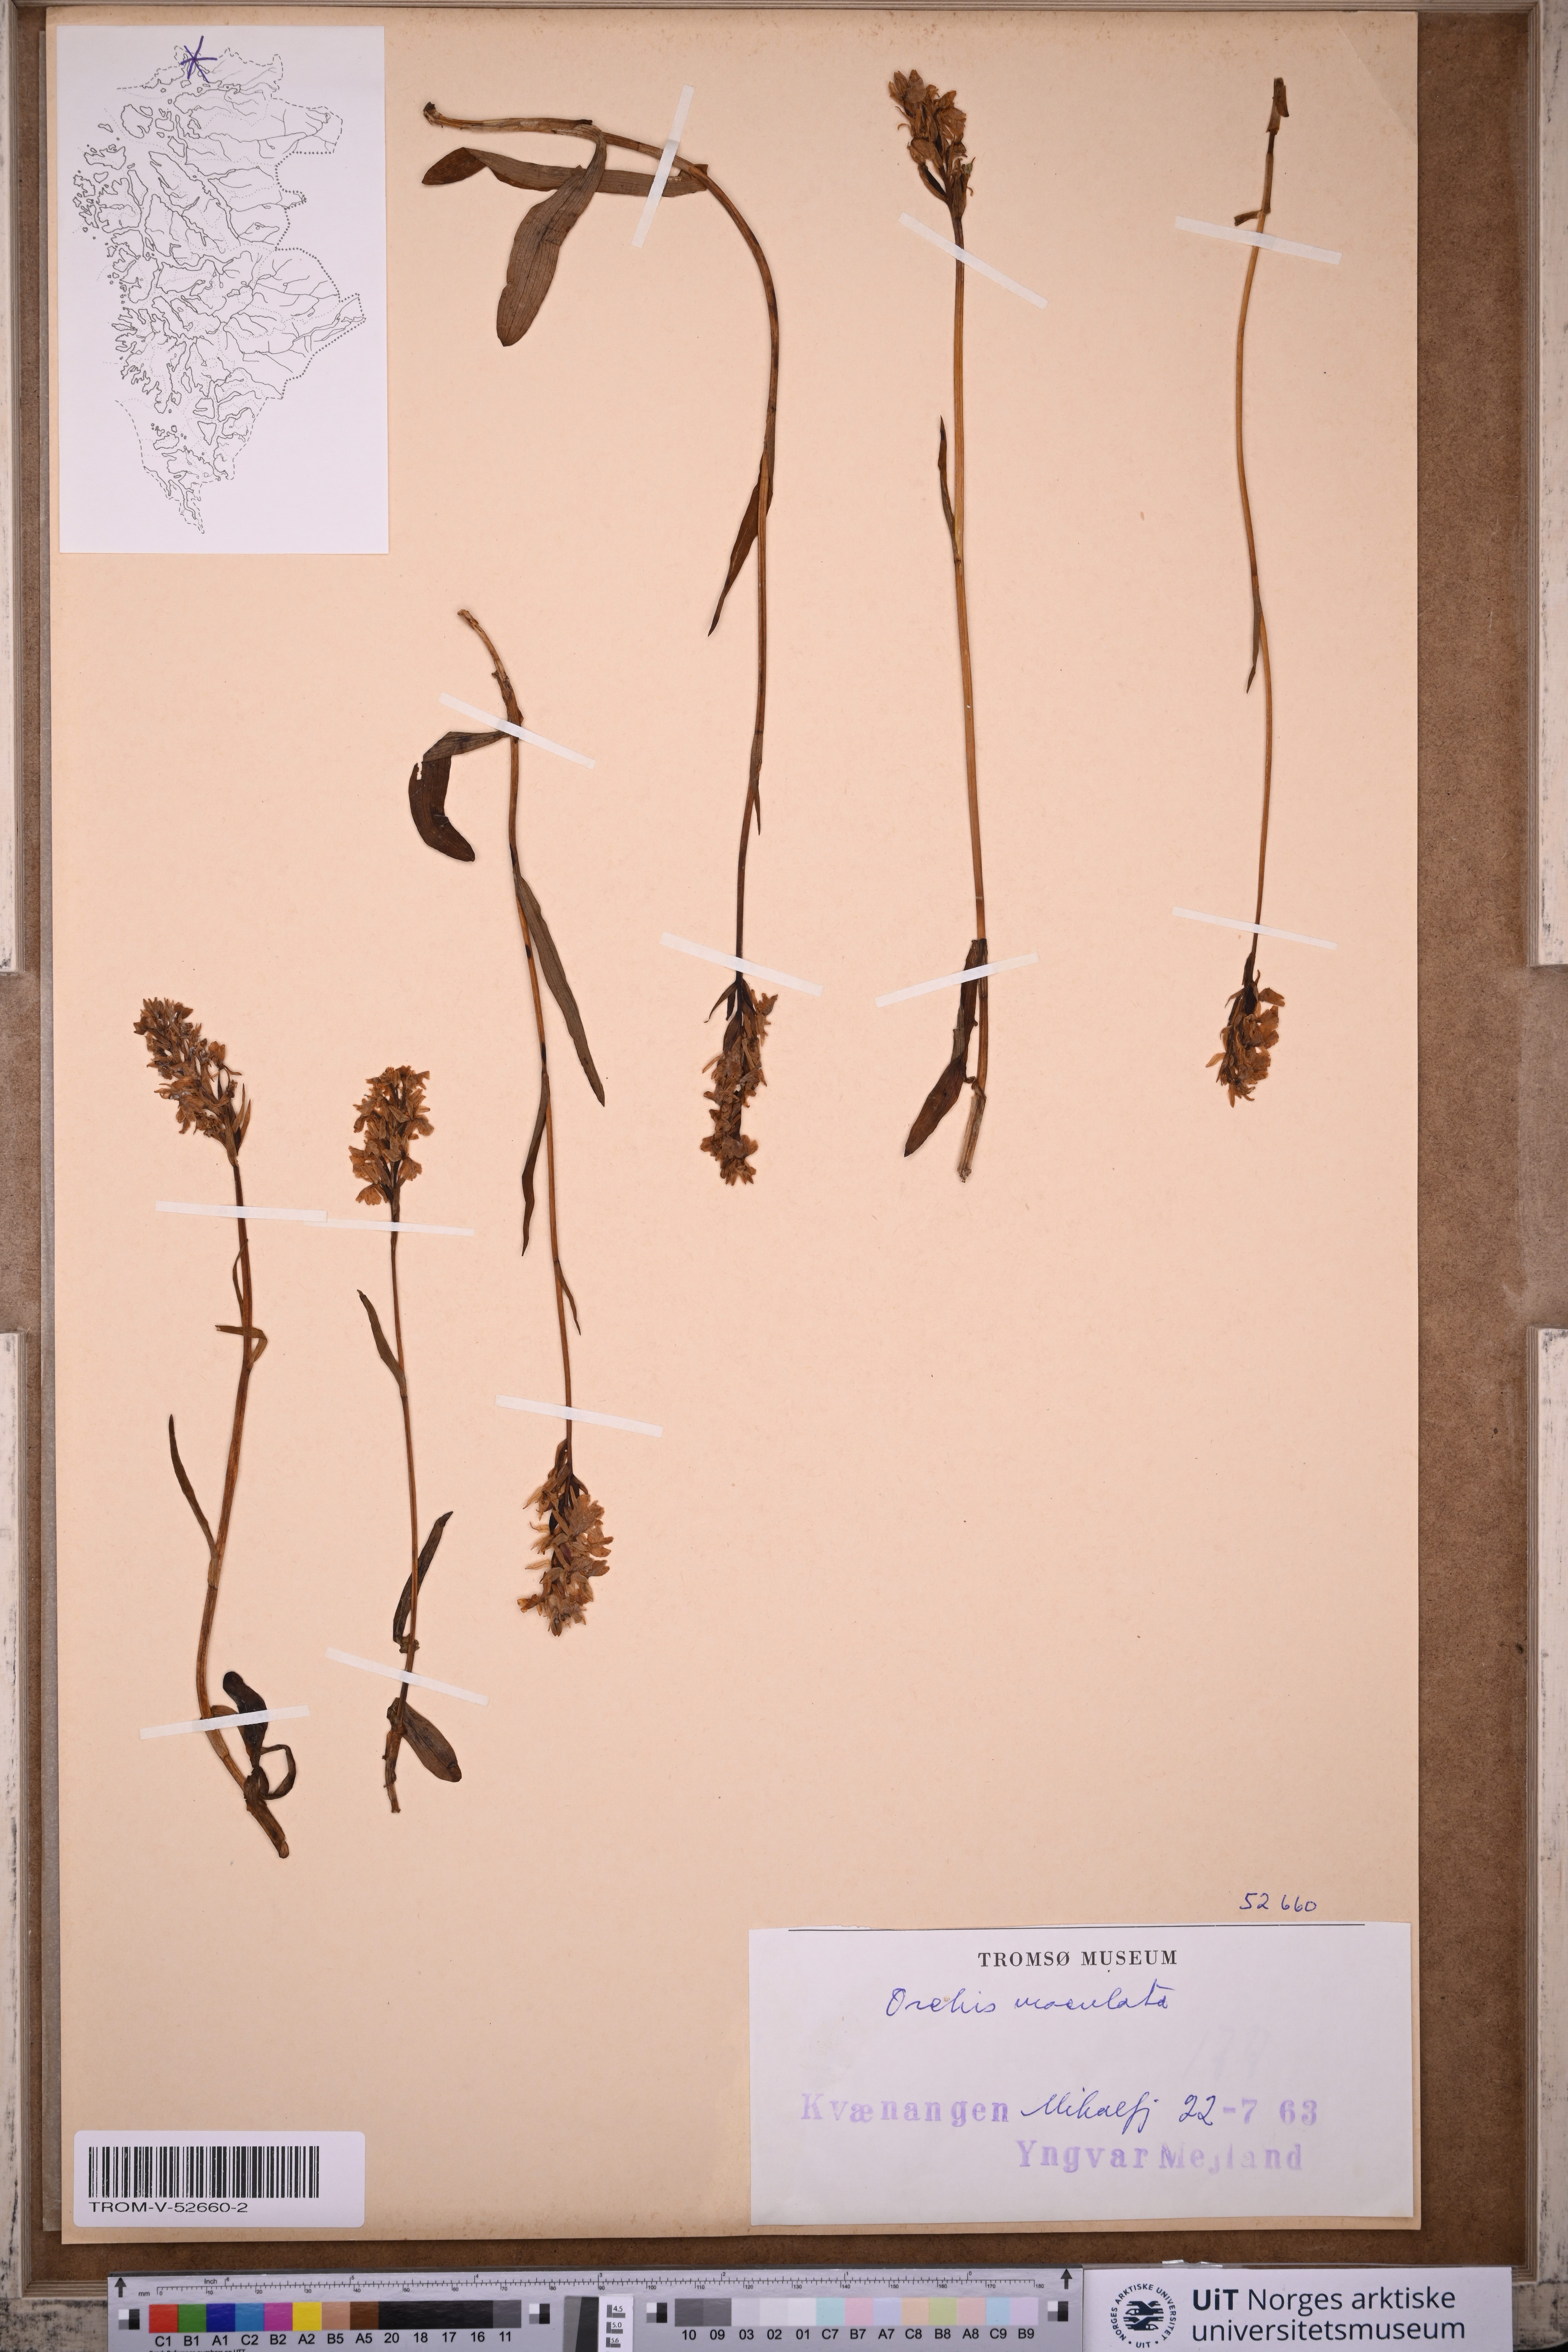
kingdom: Plantae
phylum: Tracheophyta
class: Liliopsida
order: Asparagales
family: Orchidaceae
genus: Dactylorhiza
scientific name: Dactylorhiza maculata
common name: Heath spotted-orchid
